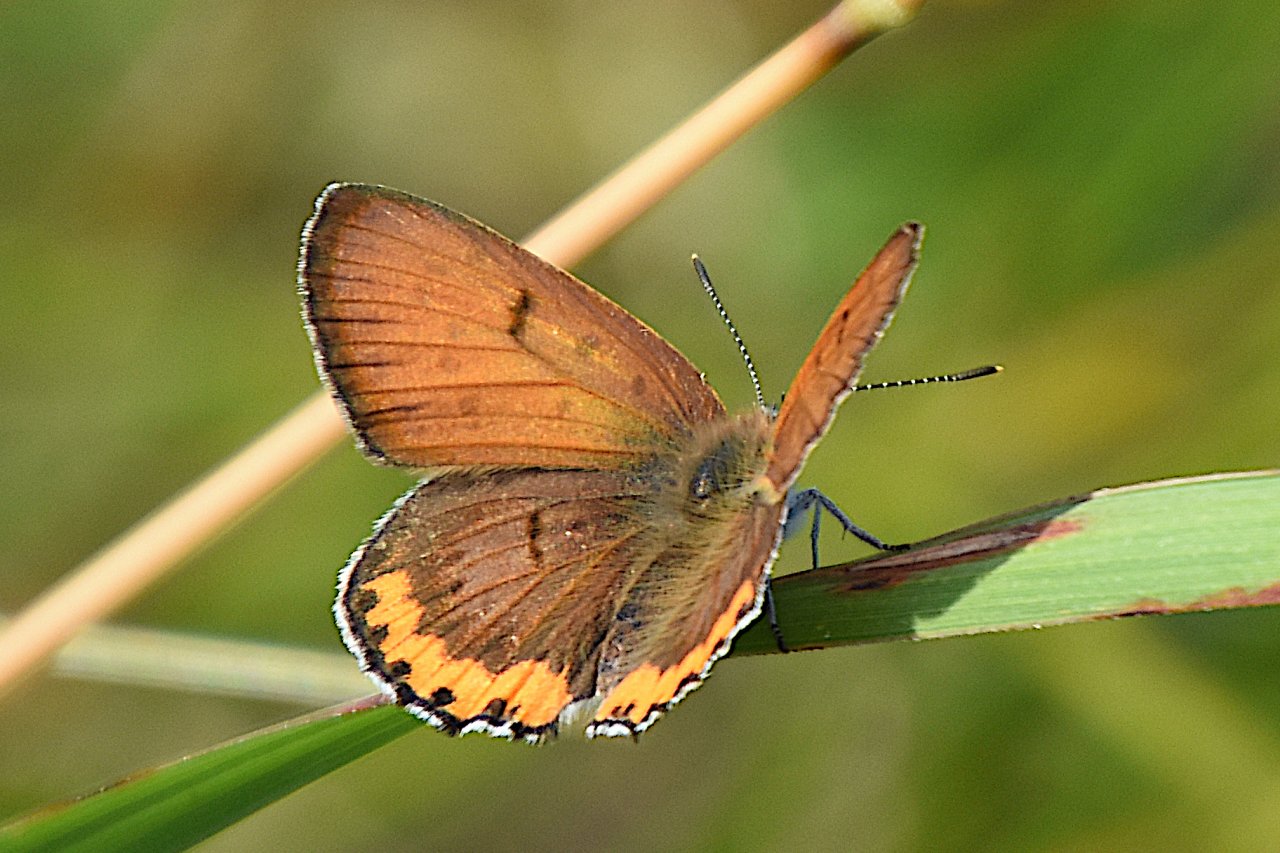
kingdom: Animalia
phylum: Arthropoda
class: Insecta
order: Lepidoptera
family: Sesiidae
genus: Sesia
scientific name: Sesia Lycaena hyllus
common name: Bronze Copper
